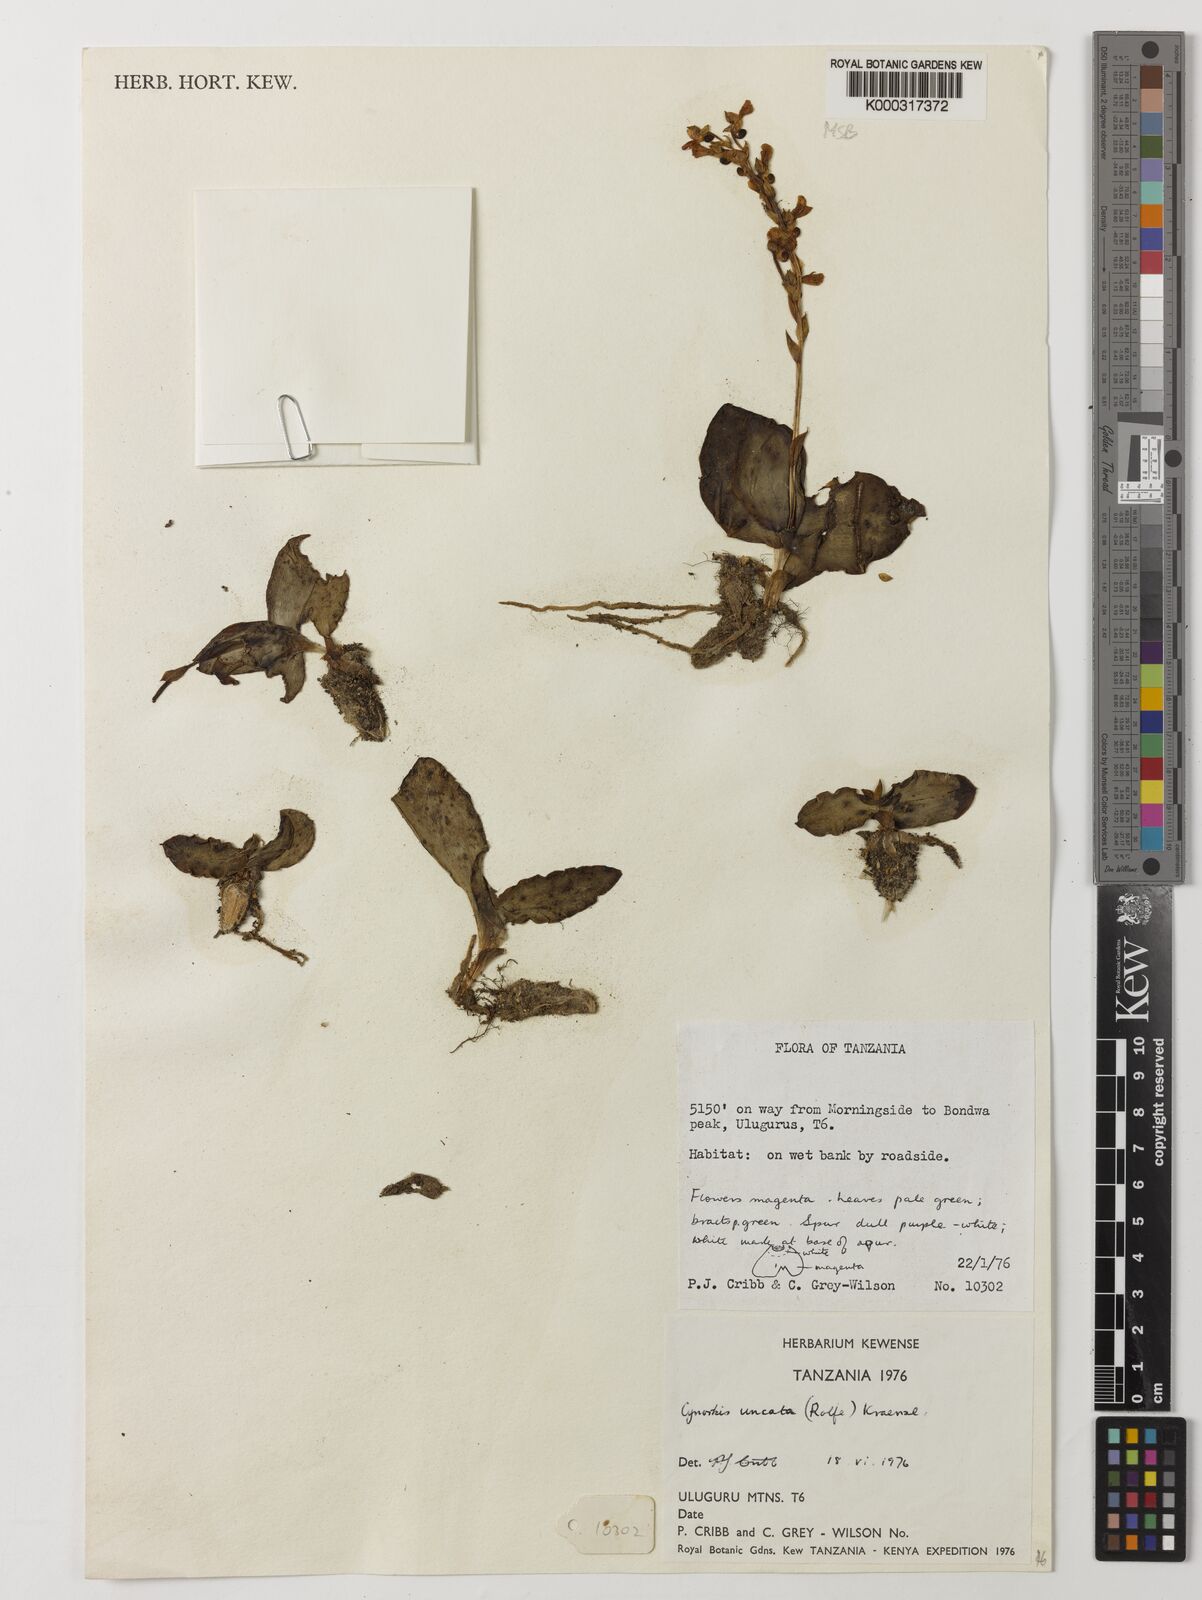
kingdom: Plantae
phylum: Tracheophyta
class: Liliopsida
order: Asparagales
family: Orchidaceae
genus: Cynorkis
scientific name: Cynorkis uncata
